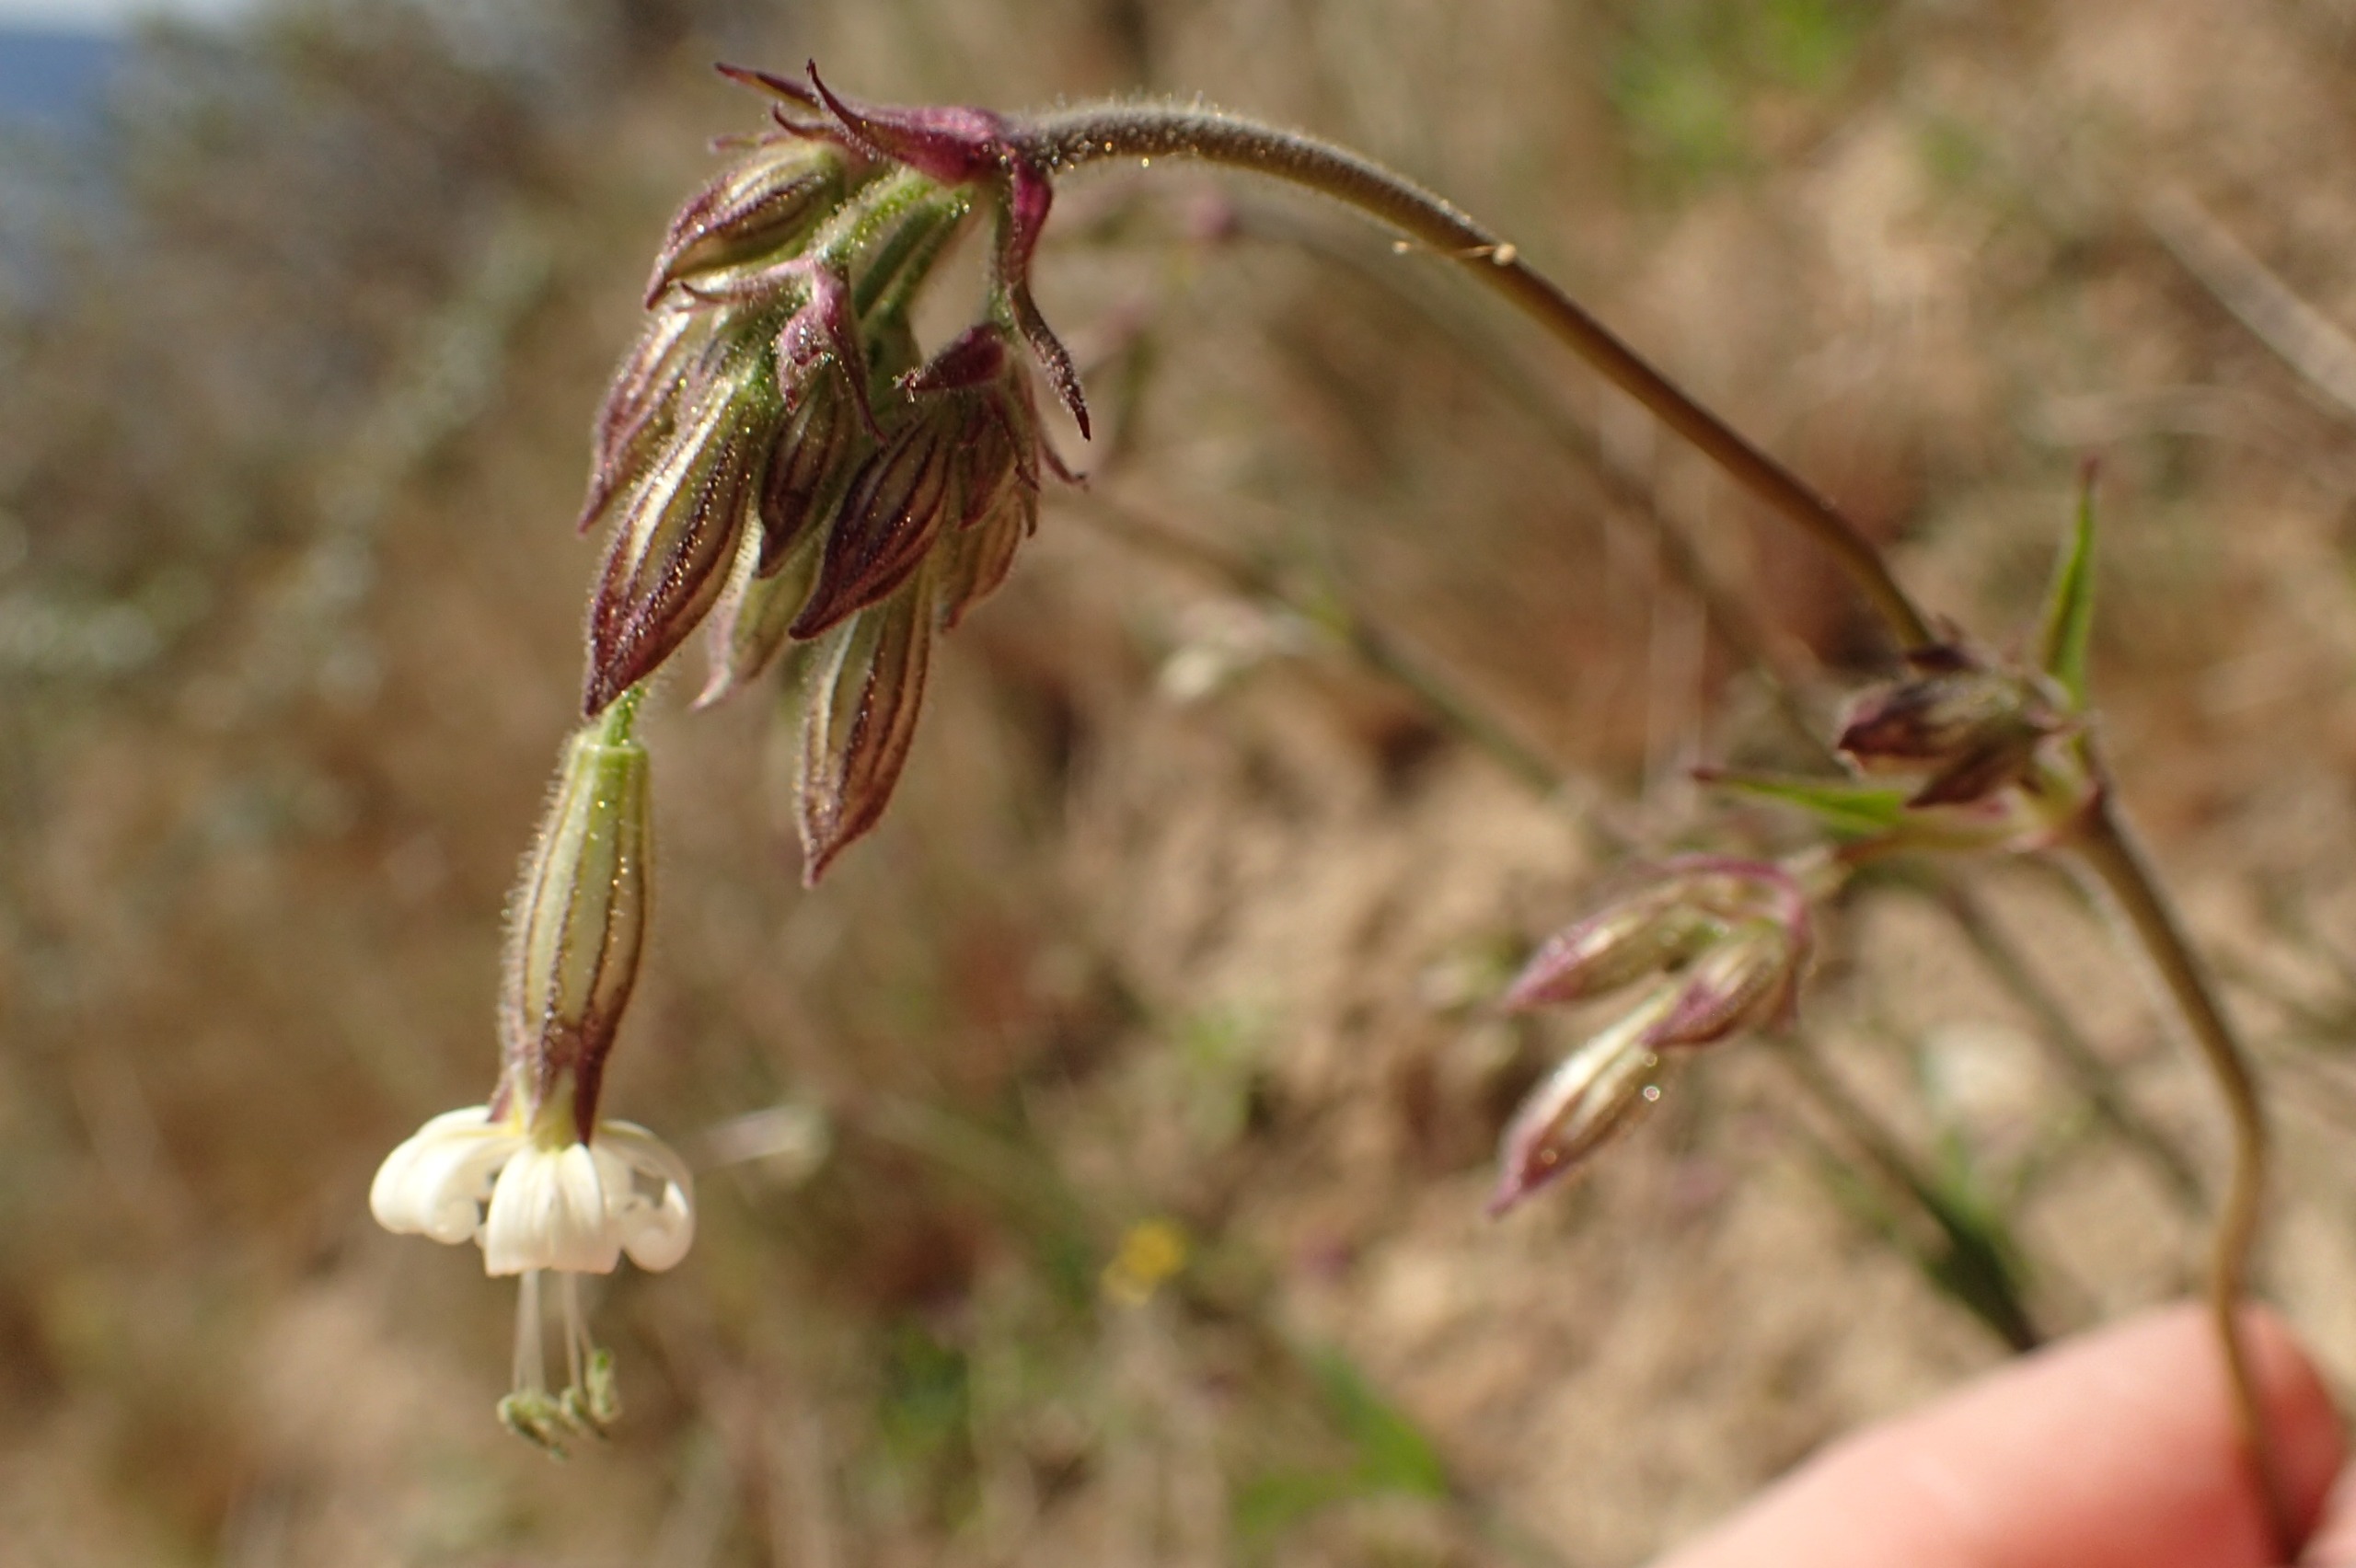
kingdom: Plantae
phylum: Tracheophyta
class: Magnoliopsida
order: Caryophyllales
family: Caryophyllaceae
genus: Silene
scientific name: Silene nutans
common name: Nikkende limurt
